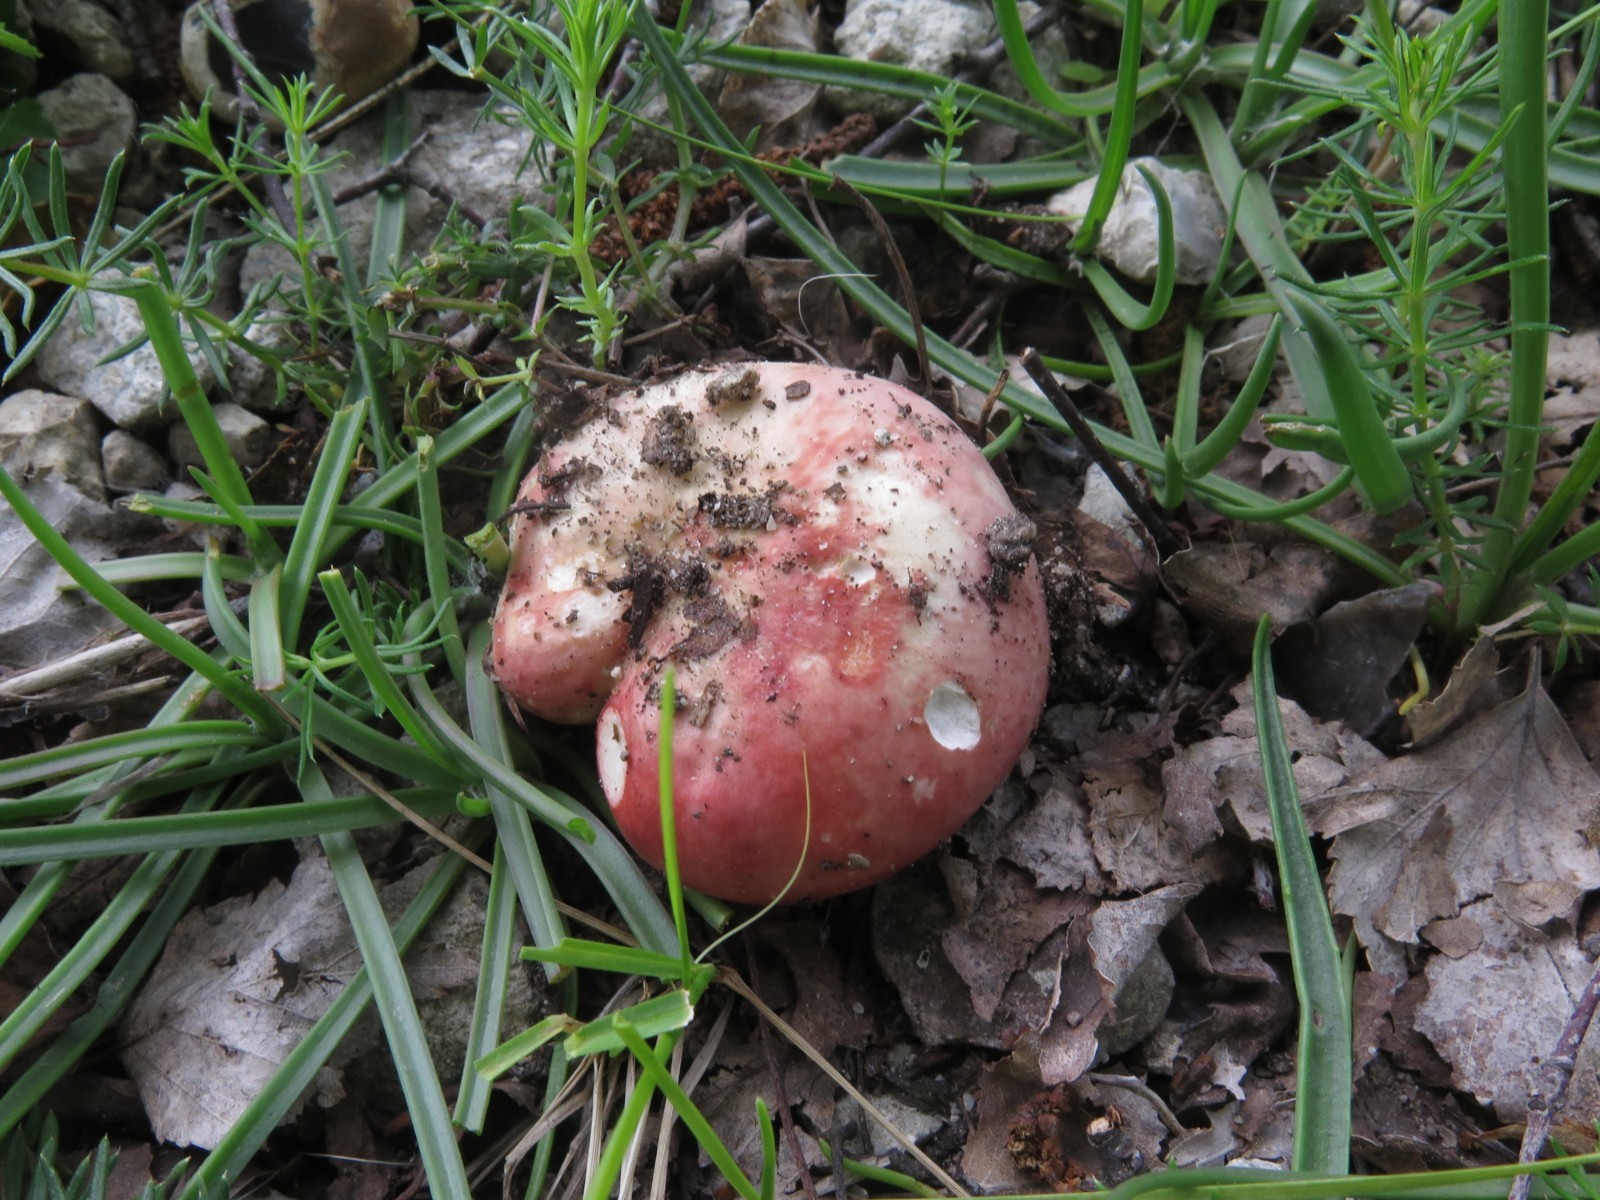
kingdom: Fungi
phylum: Basidiomycota
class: Agaricomycetes
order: Russulales
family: Russulaceae
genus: Russula
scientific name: Russula depallens
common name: falmende skørhat
